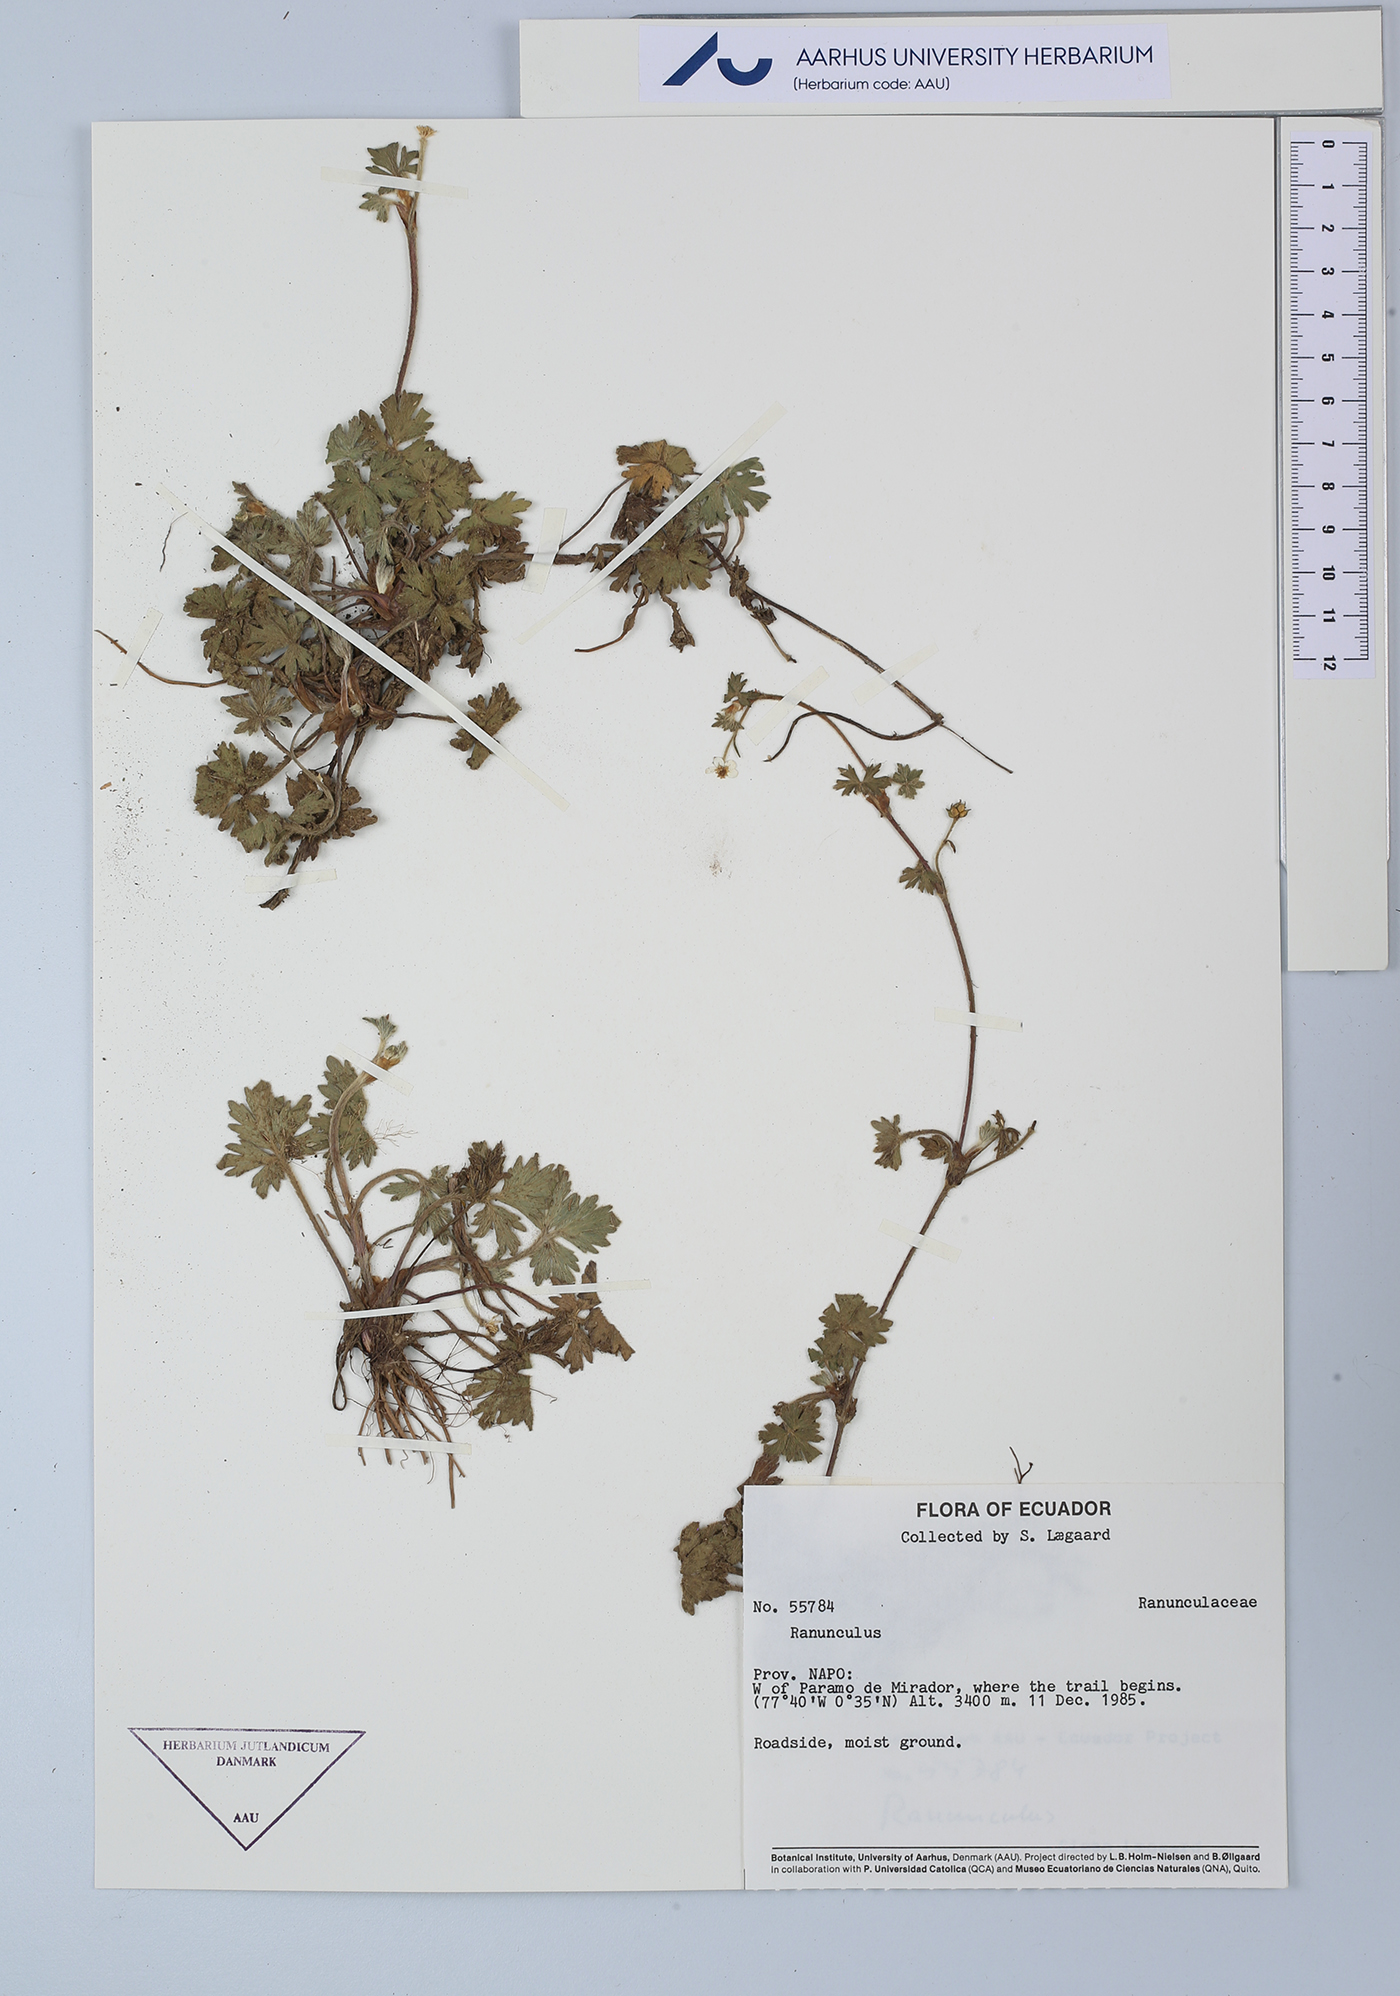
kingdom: Plantae
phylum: Tracheophyta
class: Magnoliopsida
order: Ranunculales
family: Ranunculaceae
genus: Ranunculus
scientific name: Ranunculus
